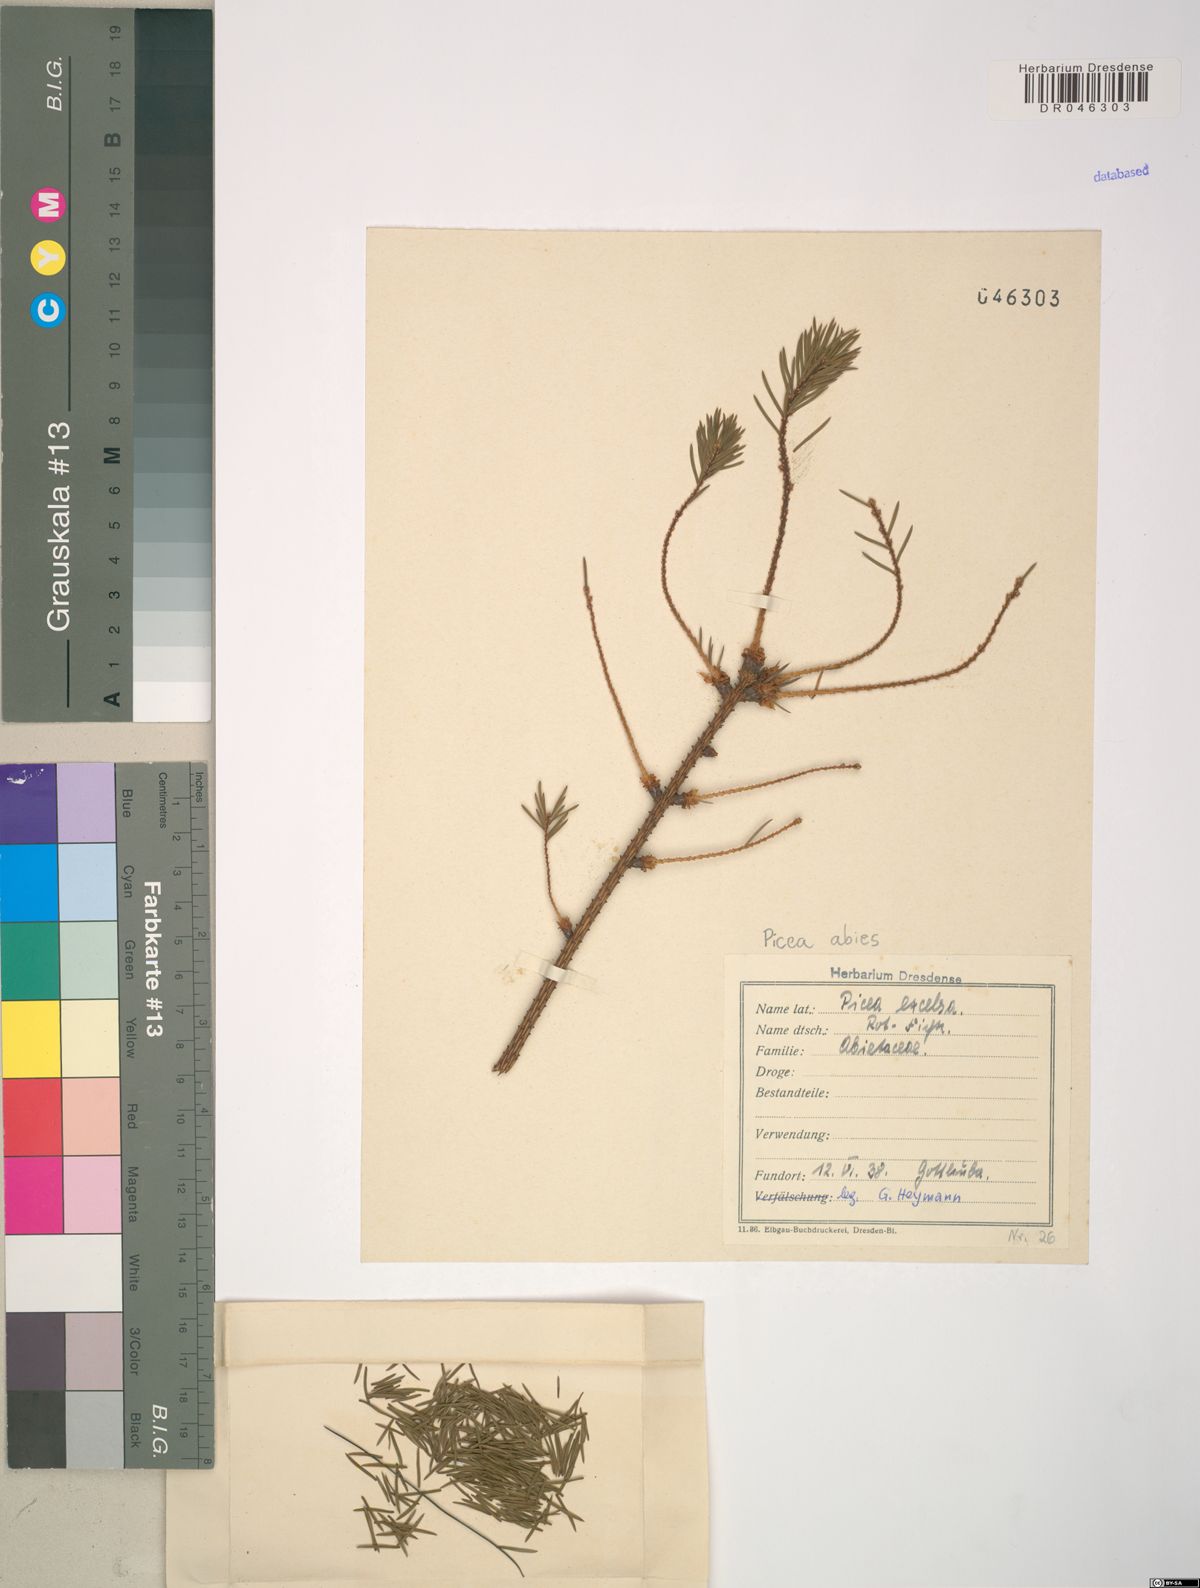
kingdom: Plantae
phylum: Tracheophyta
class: Pinopsida
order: Pinales
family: Pinaceae
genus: Picea
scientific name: Picea abies
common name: Norway spruce
